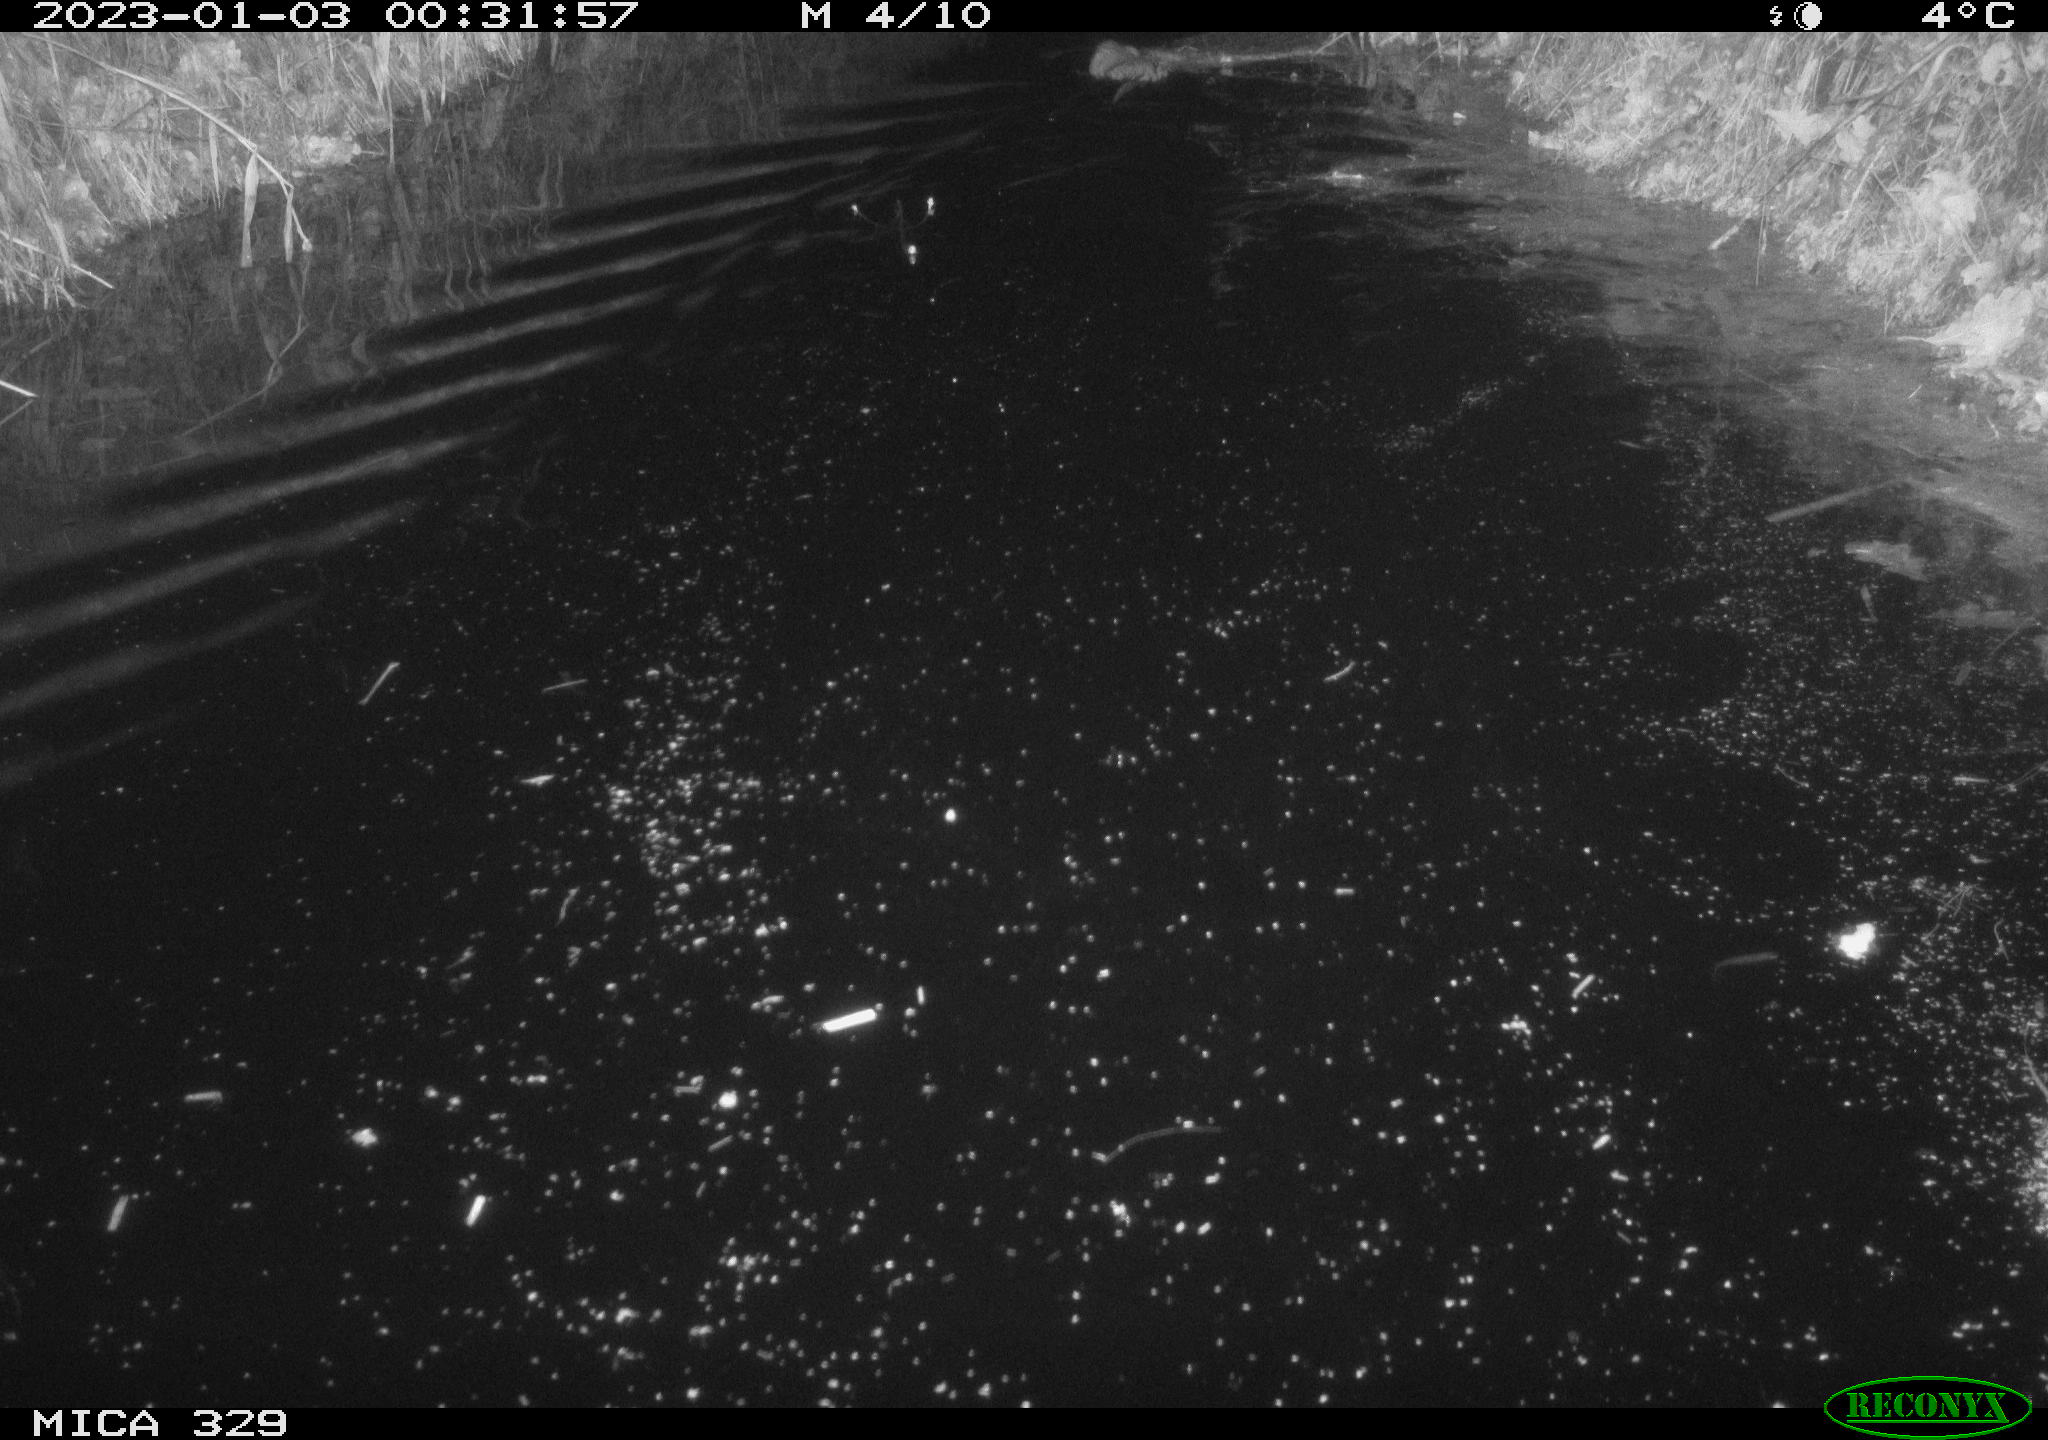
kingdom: Animalia
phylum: Chordata
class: Mammalia
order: Rodentia
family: Cricetidae
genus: Ondatra
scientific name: Ondatra zibethicus
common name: Muskrat
